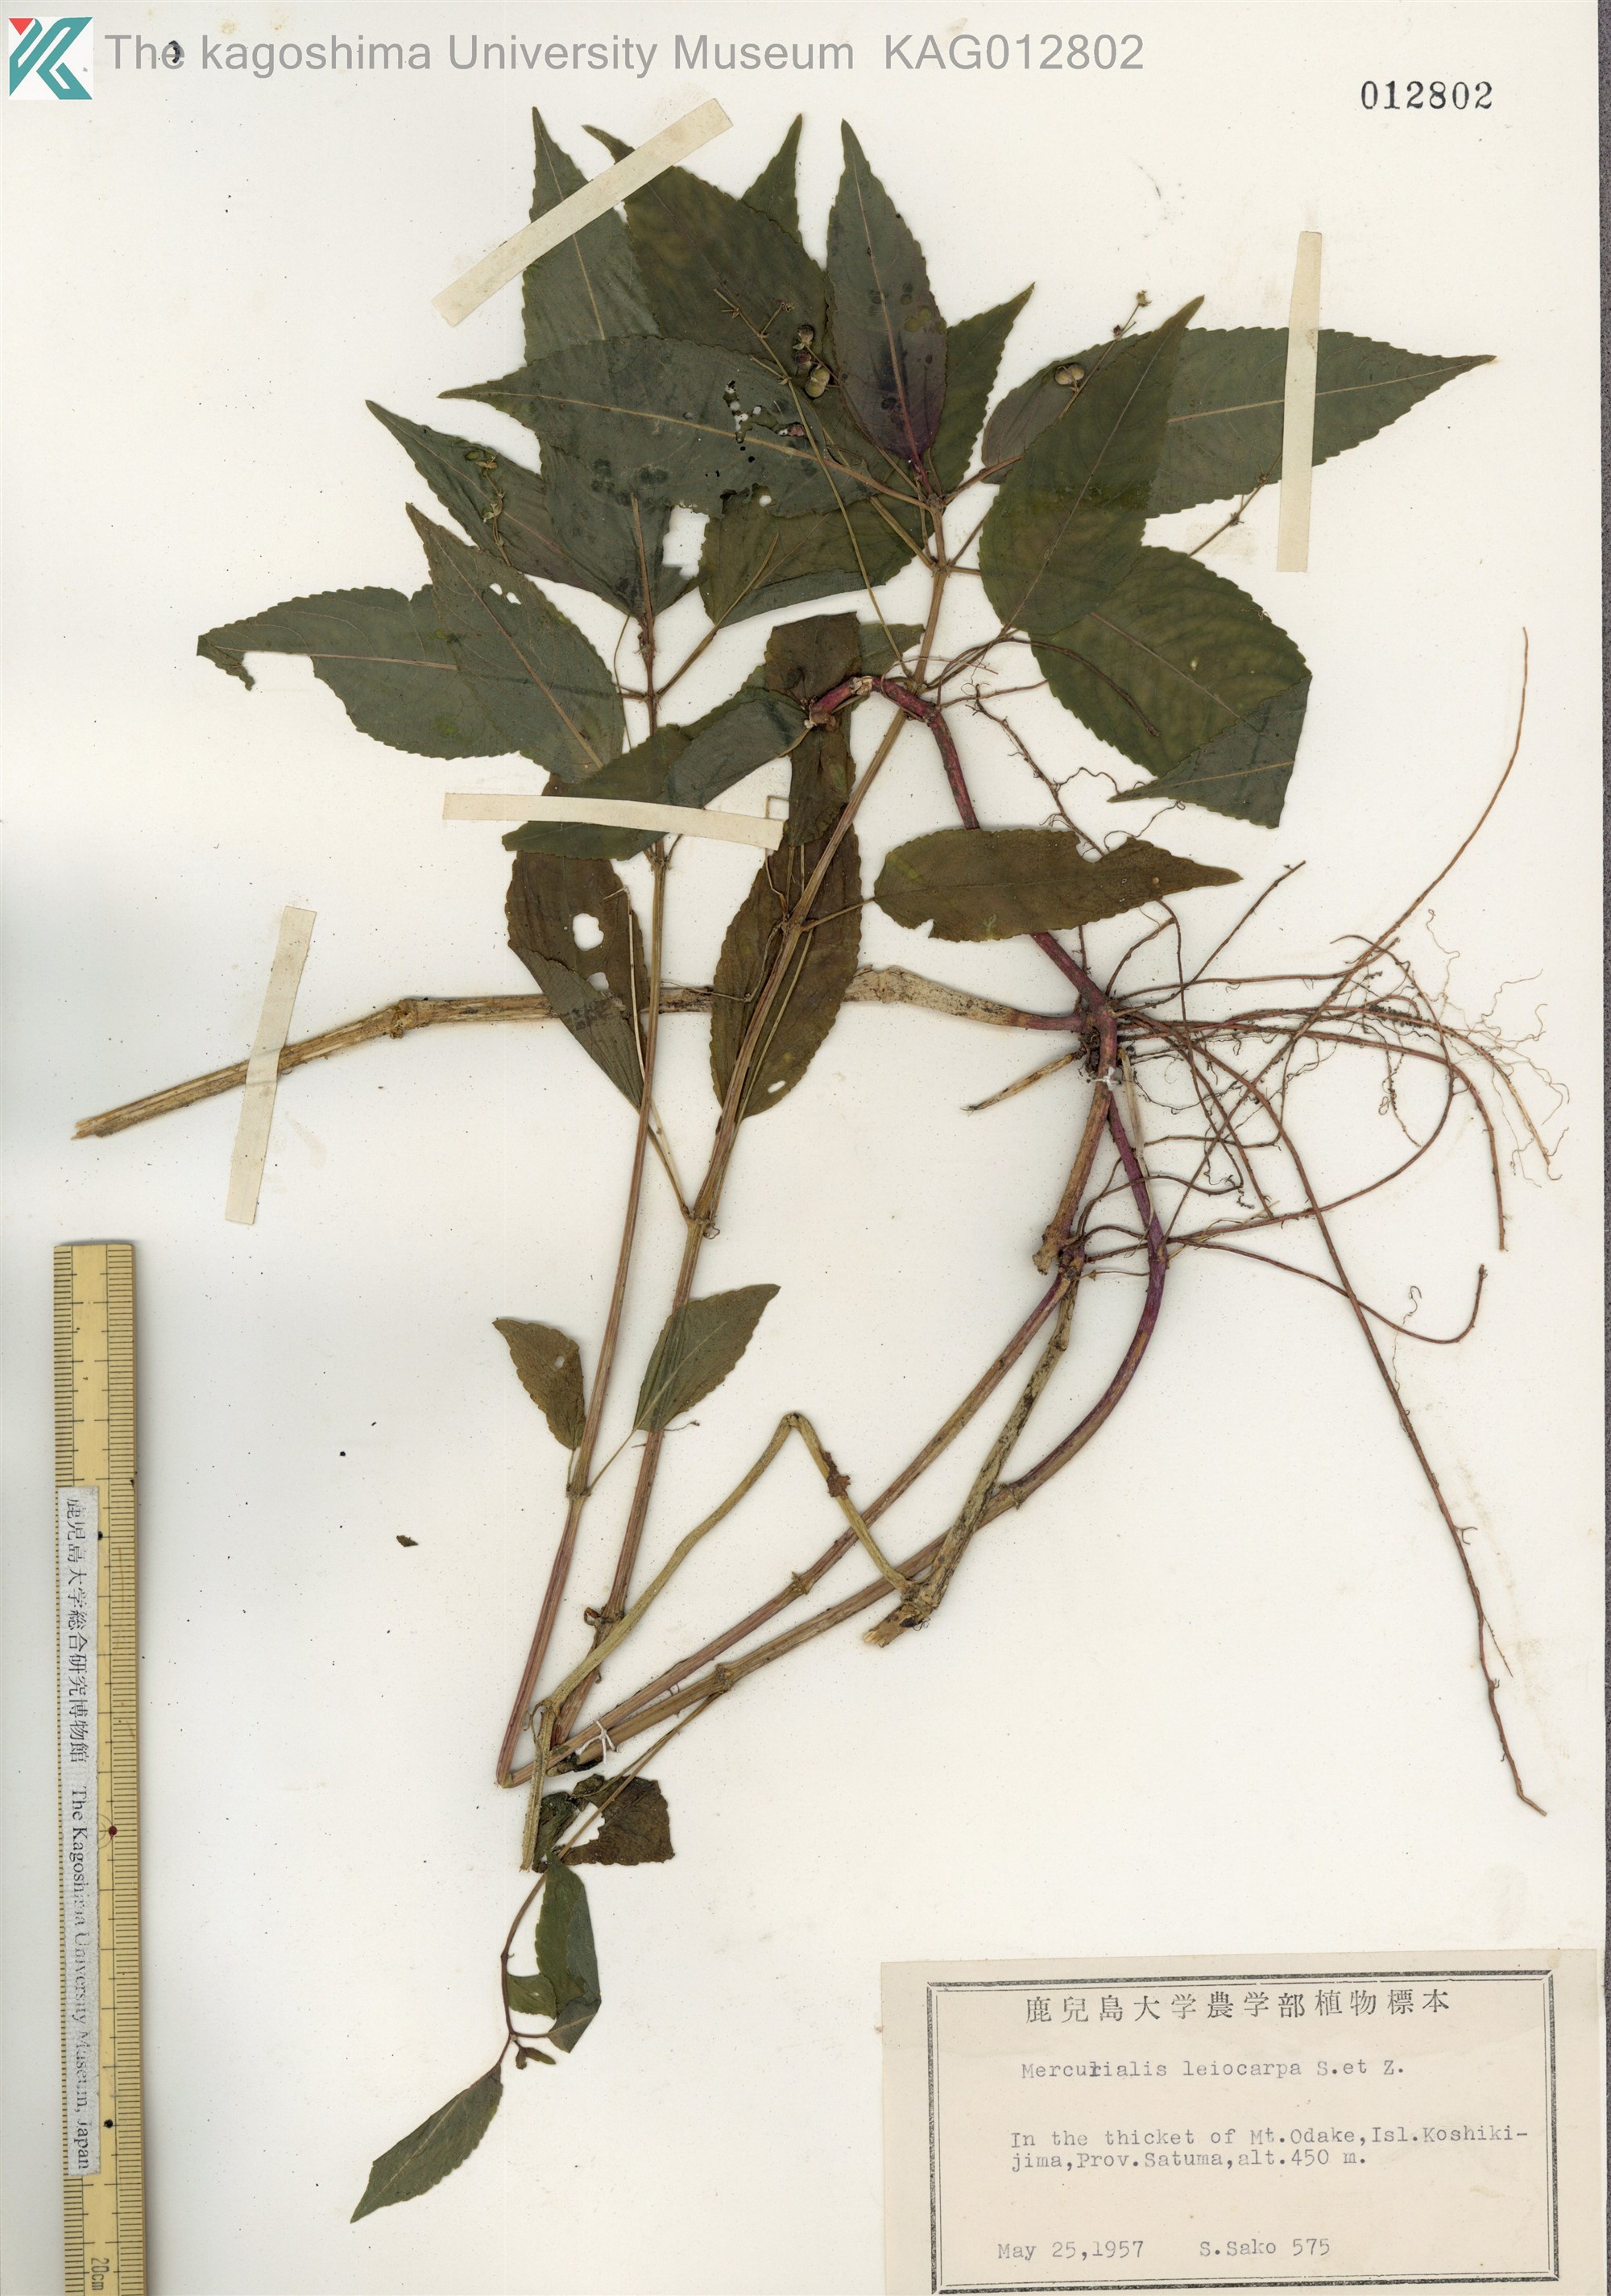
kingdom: Plantae
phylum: Tracheophyta
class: Magnoliopsida
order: Malpighiales
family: Euphorbiaceae
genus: Mercurialis
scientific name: Mercurialis leiocarpa
